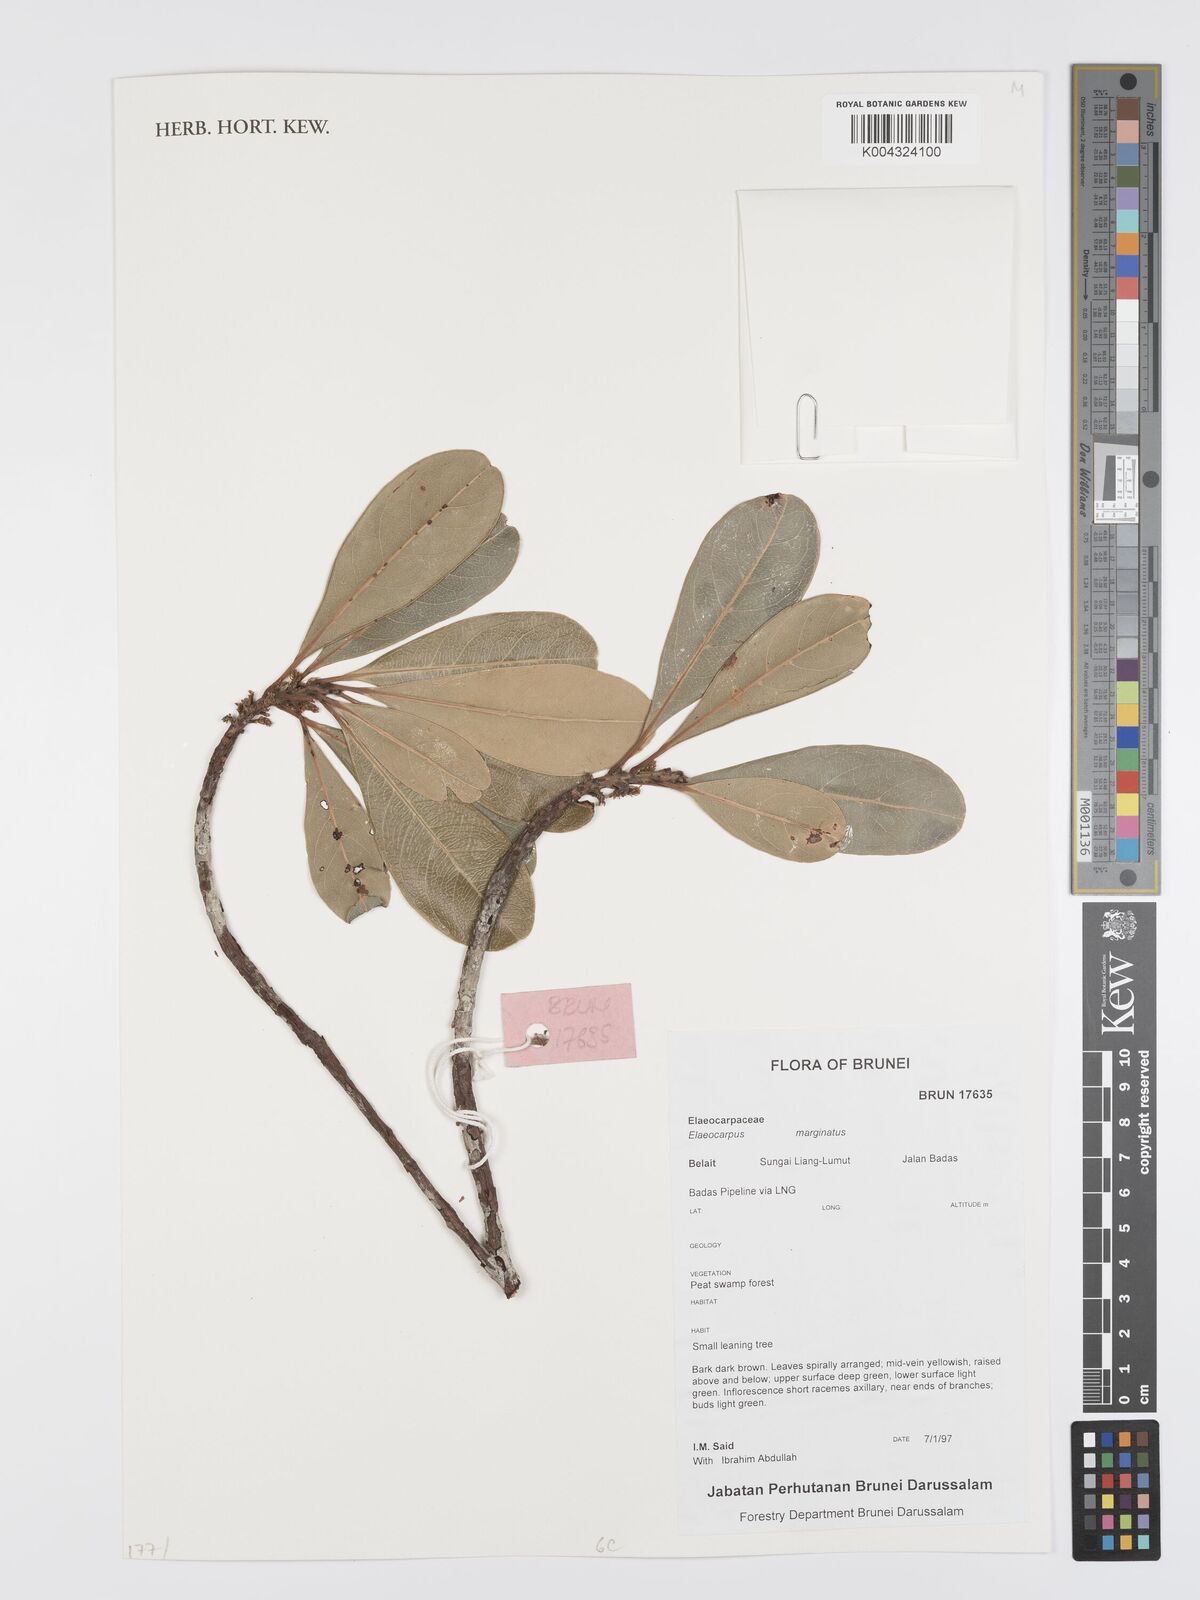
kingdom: Plantae
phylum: Tracheophyta
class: Magnoliopsida
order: Oxalidales
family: Elaeocarpaceae
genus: Elaeocarpus
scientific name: Elaeocarpus marginatus
